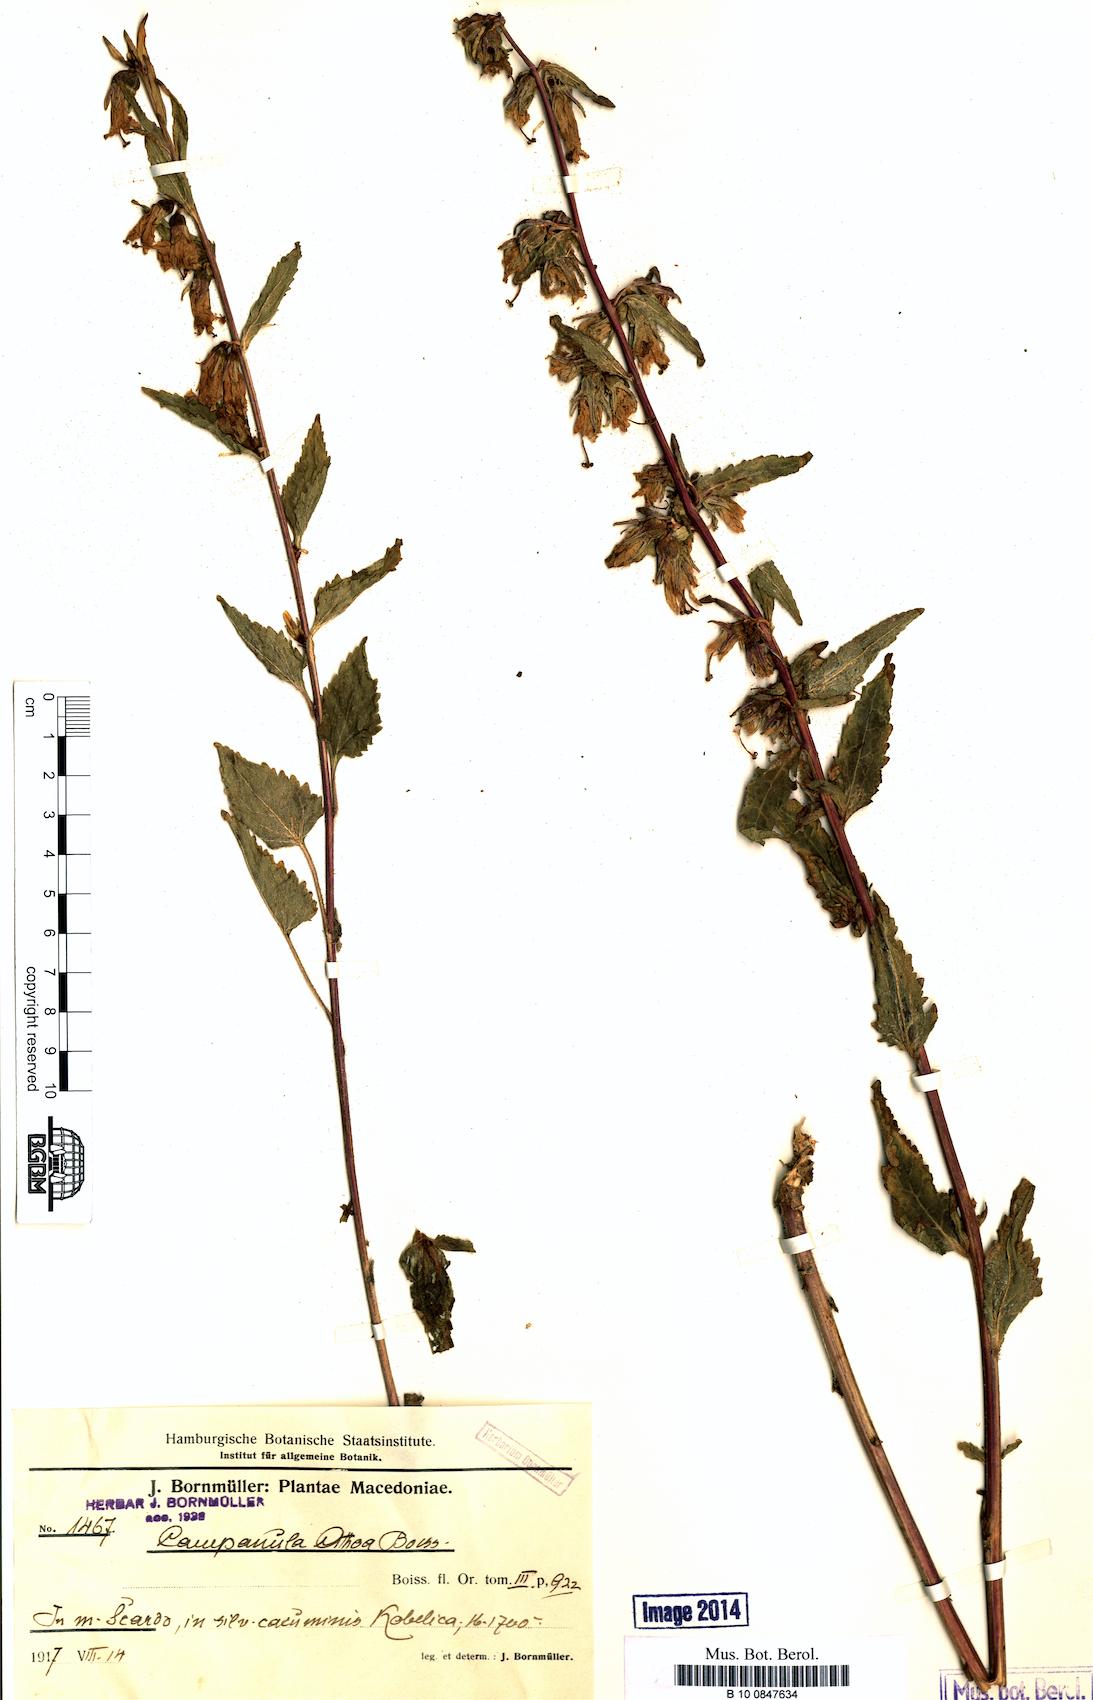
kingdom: Plantae
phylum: Tracheophyta
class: Magnoliopsida
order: Asterales
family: Campanulaceae
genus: Campanula
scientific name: Campanula trachelium
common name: Nettle-leaved bellflower
